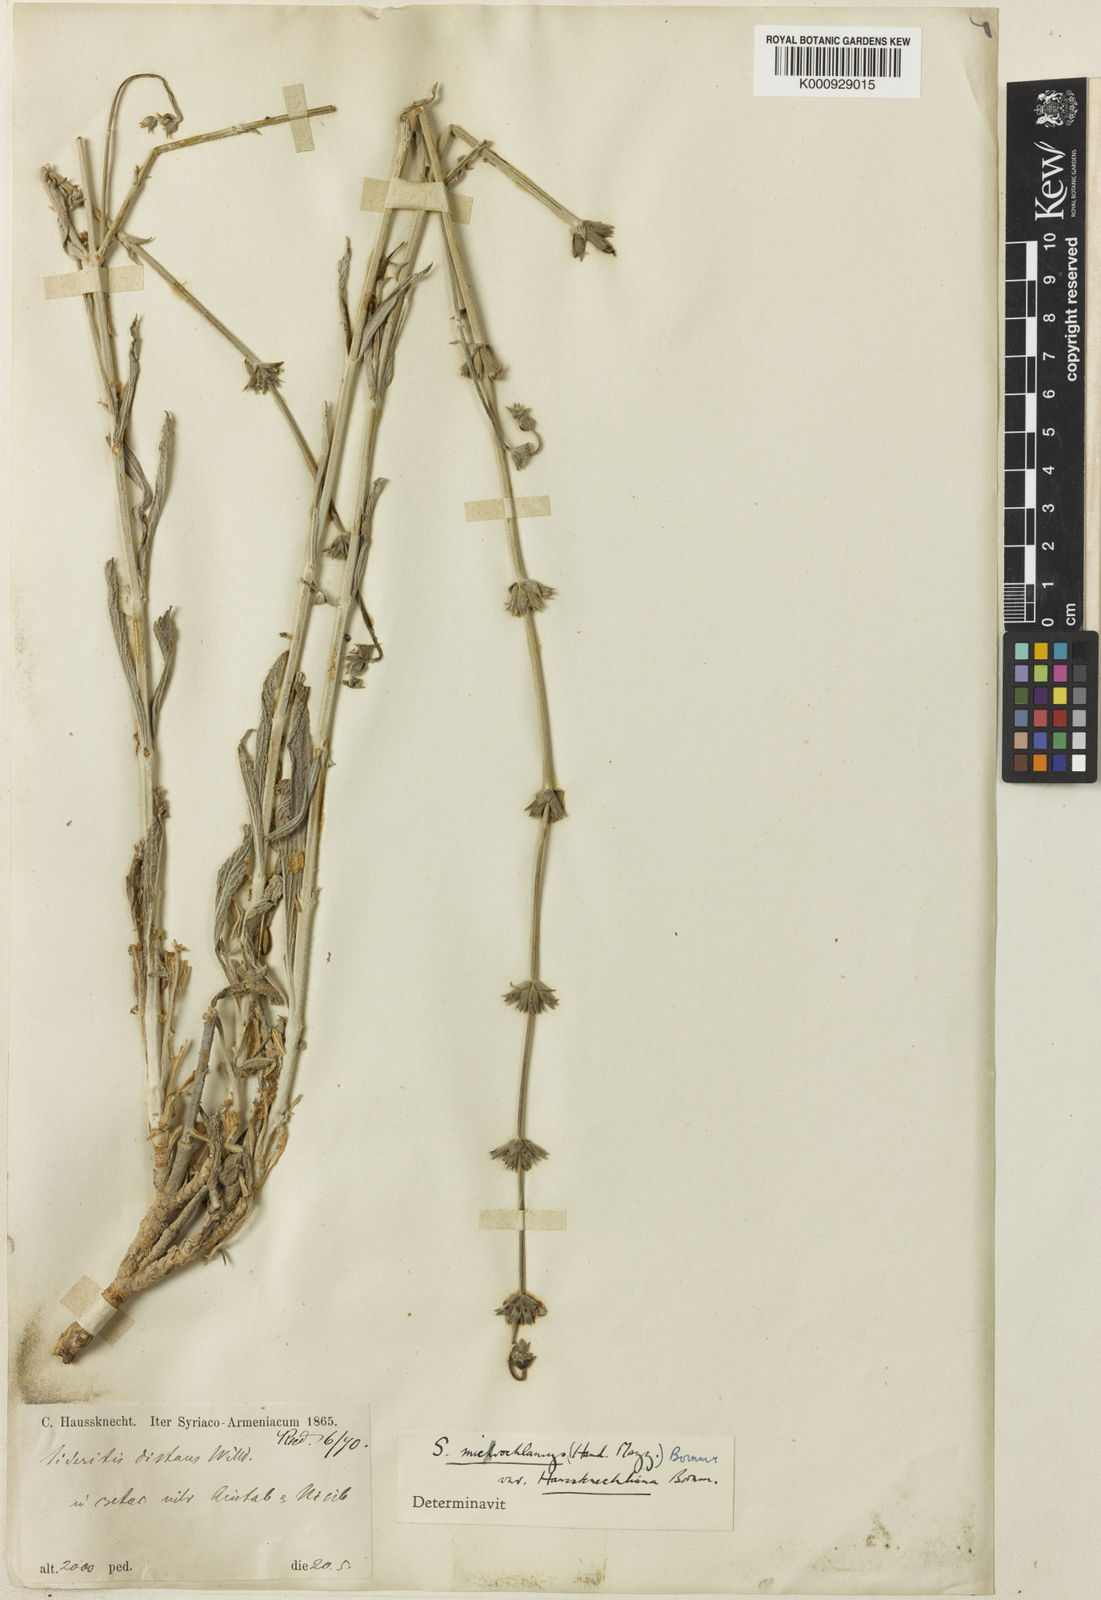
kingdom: Plantae
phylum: Tracheophyta
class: Magnoliopsida
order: Lamiales
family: Lamiaceae
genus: Sideritis
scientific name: Sideritis
